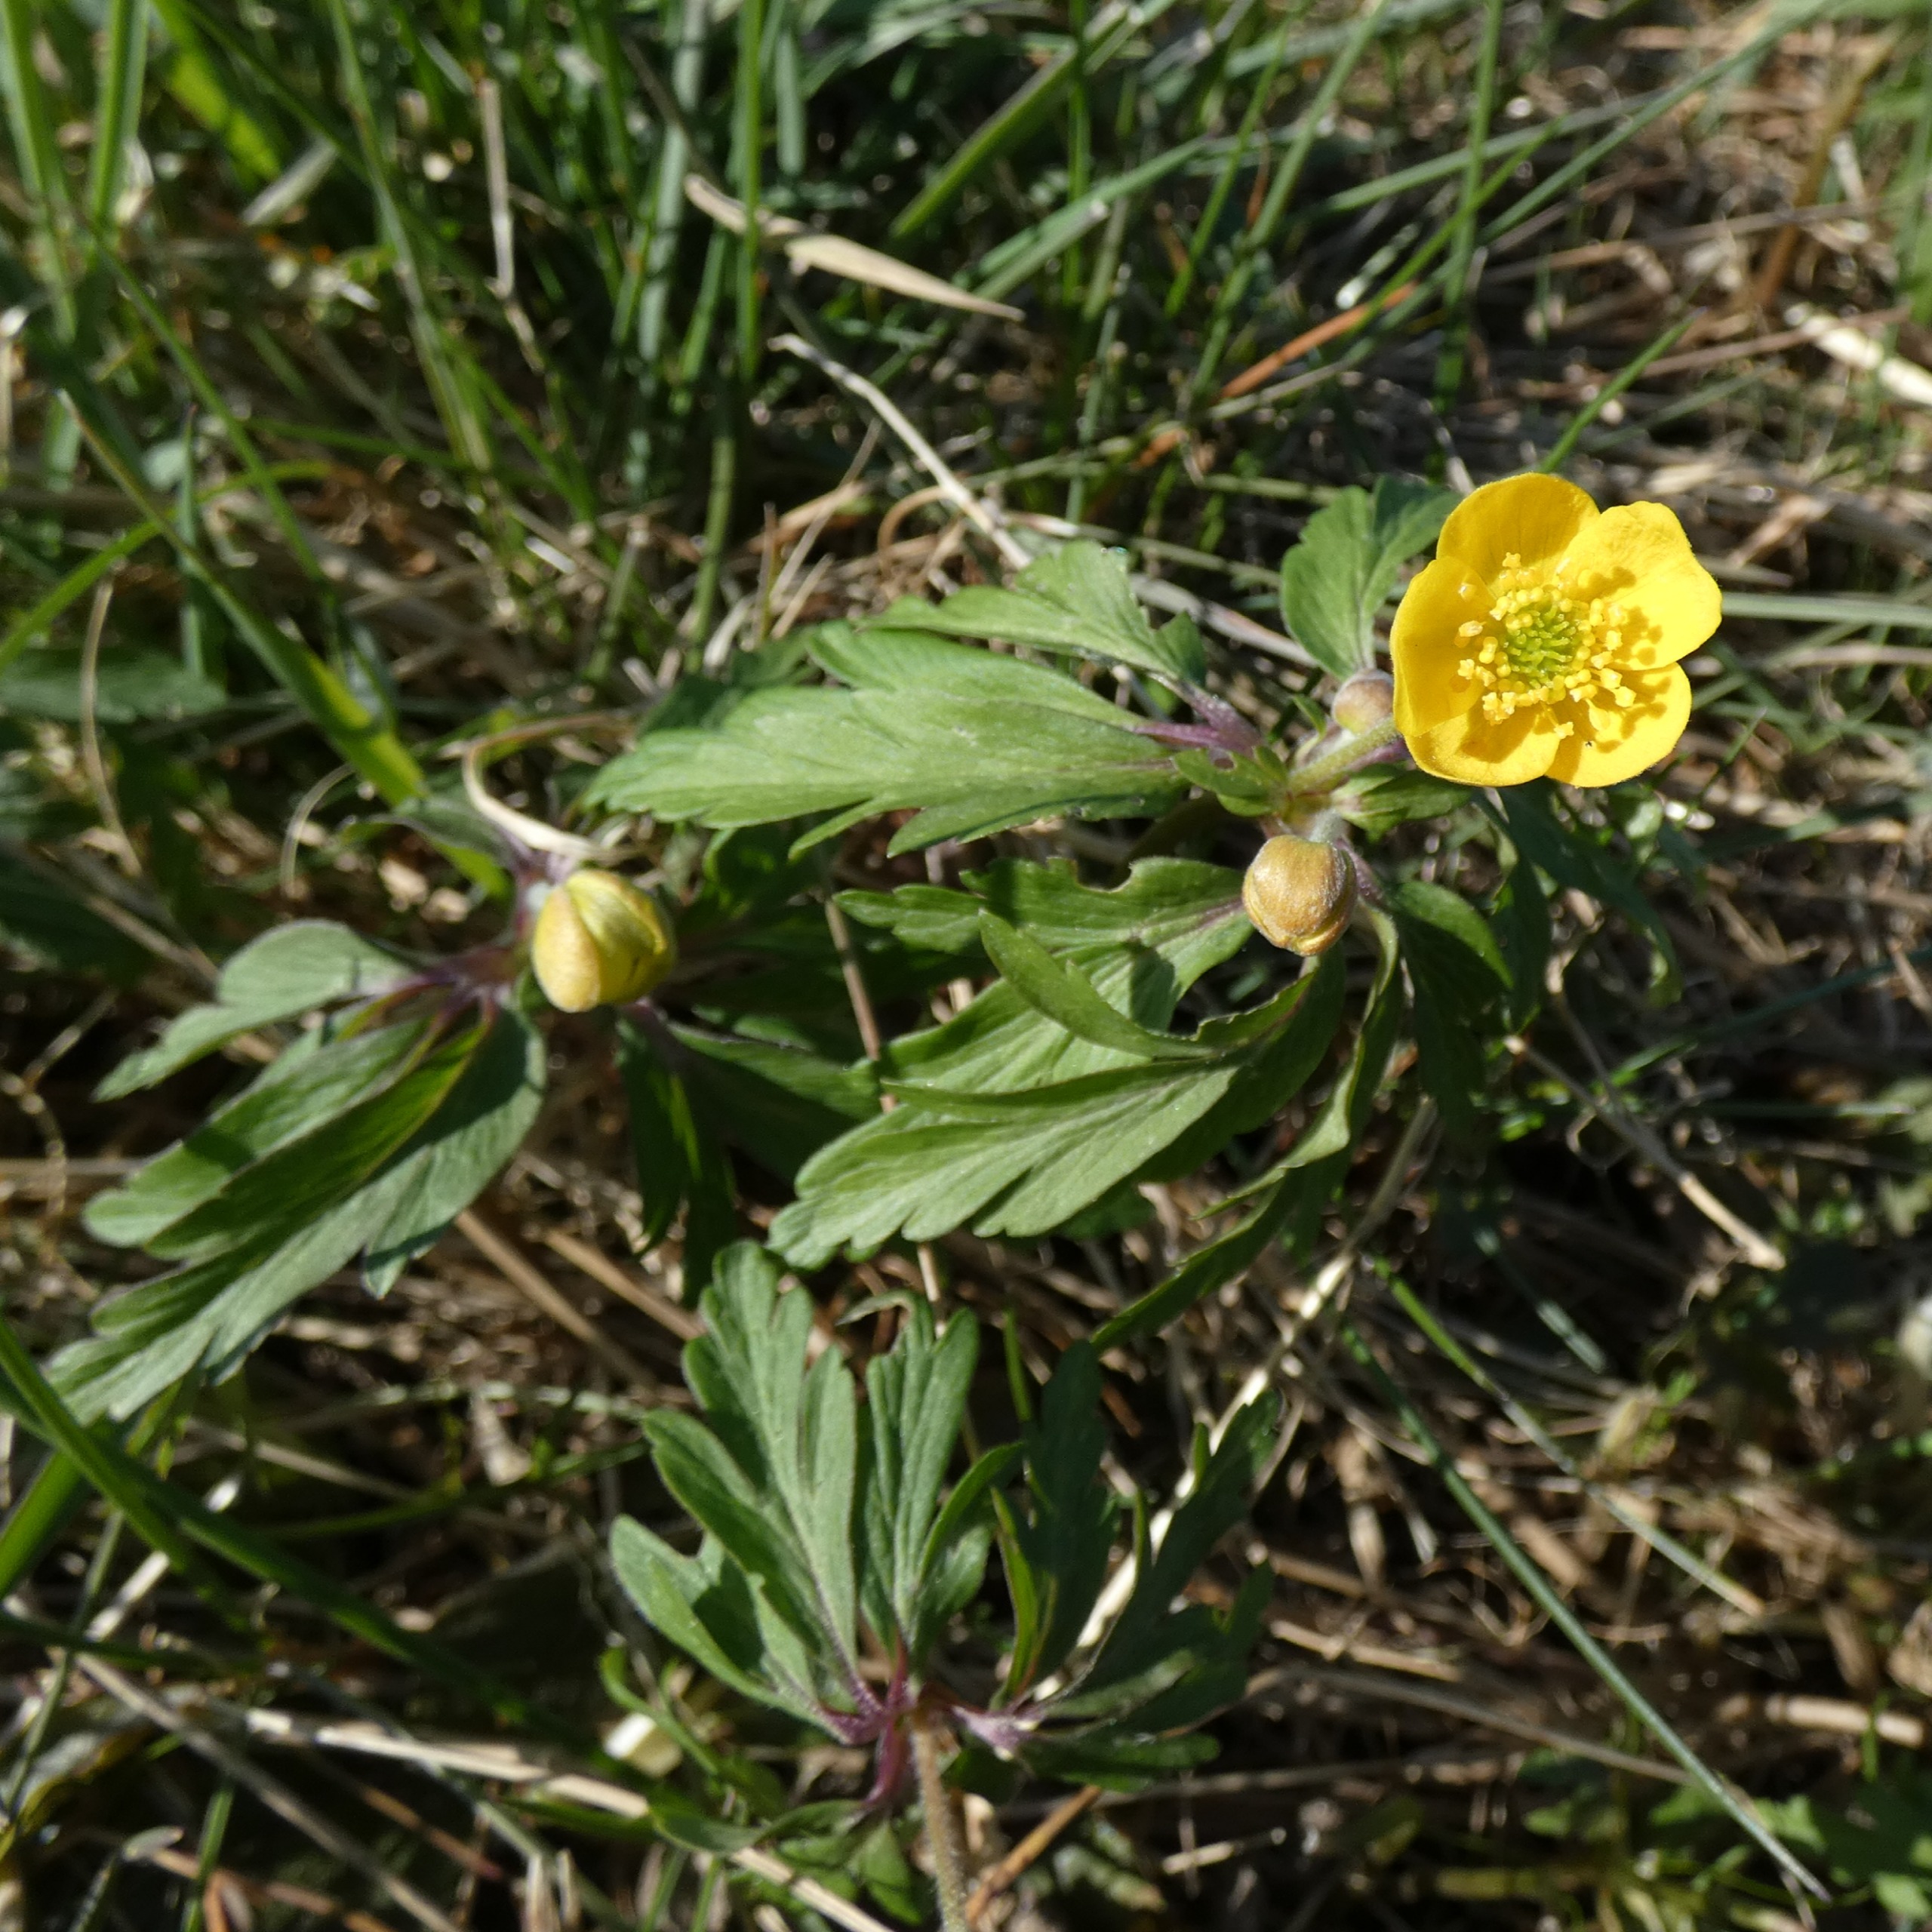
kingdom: Plantae
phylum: Tracheophyta
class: Magnoliopsida
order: Ranunculales
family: Ranunculaceae
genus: Anemone
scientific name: Anemone ranunculoides
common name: Gul anemone
